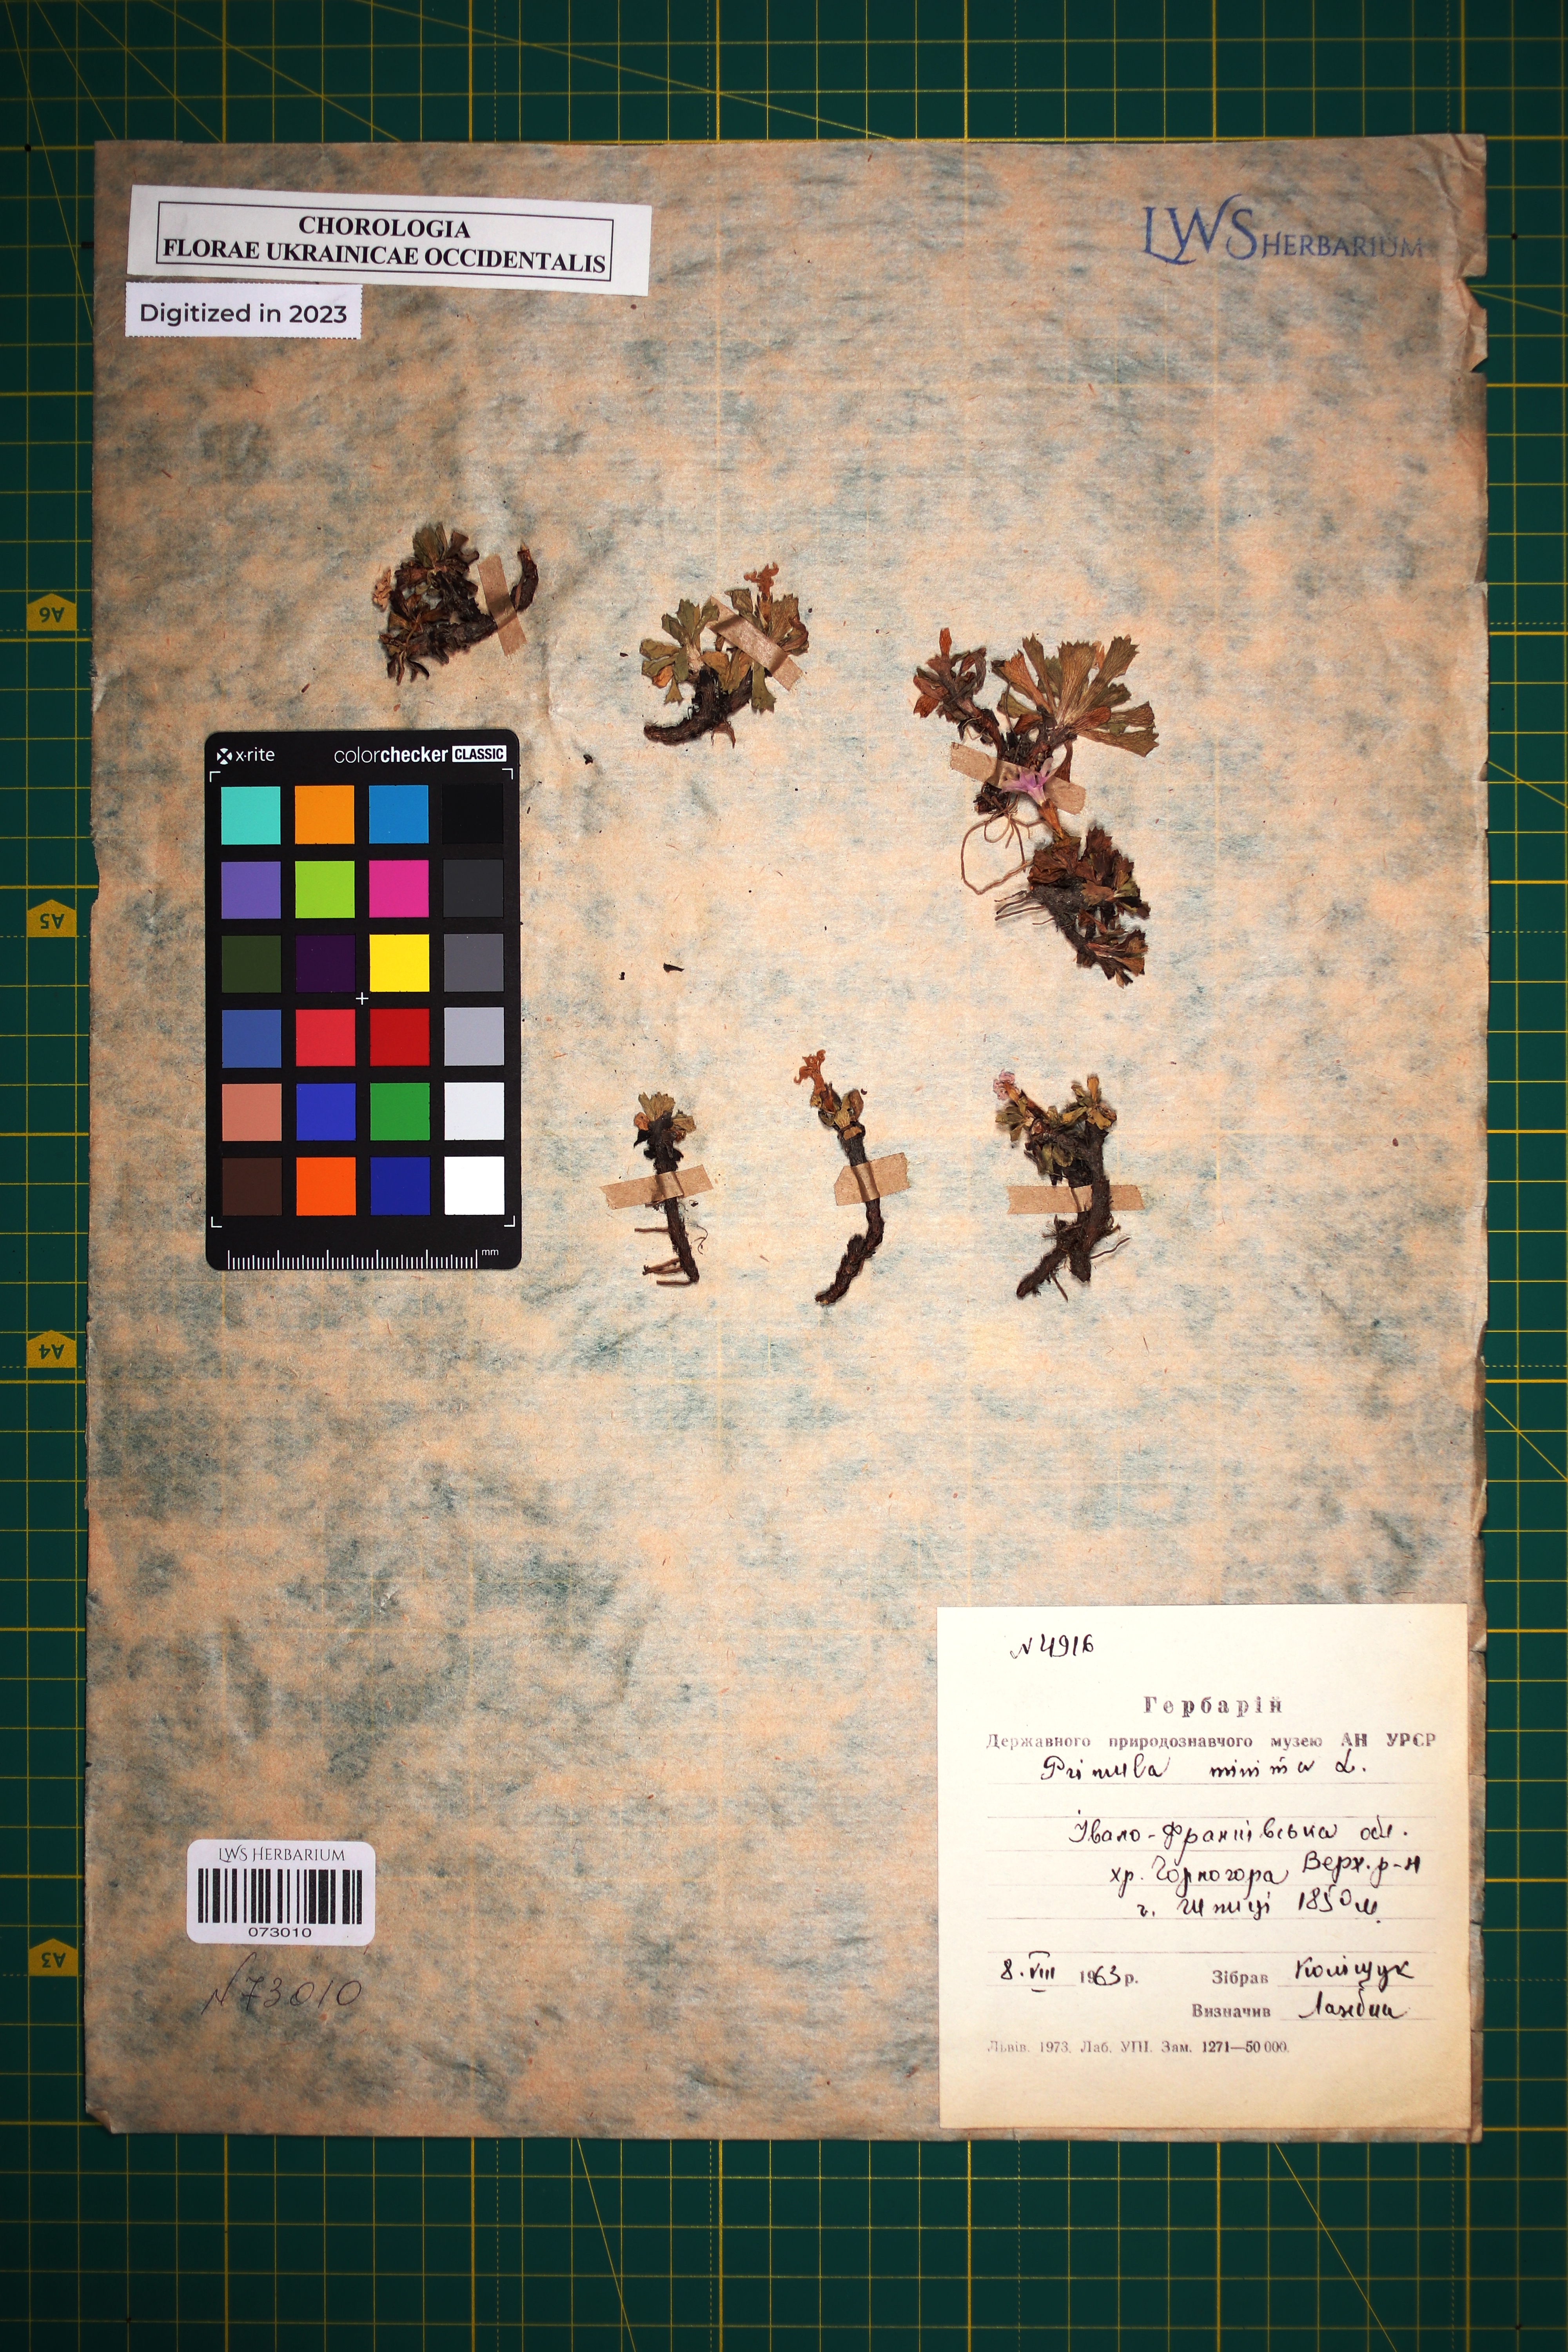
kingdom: Plantae
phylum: Tracheophyta
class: Magnoliopsida
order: Ericales
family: Primulaceae
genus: Primula
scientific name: Primula minima
